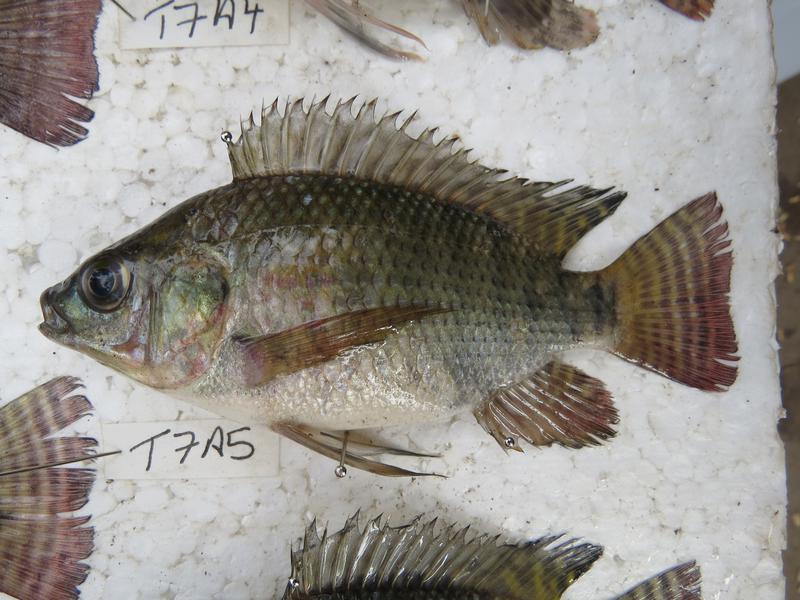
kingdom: Animalia
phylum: Chordata
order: Perciformes
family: Cichlidae
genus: Oreochromis
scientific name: Oreochromis niloticus
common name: Nile tilapia
